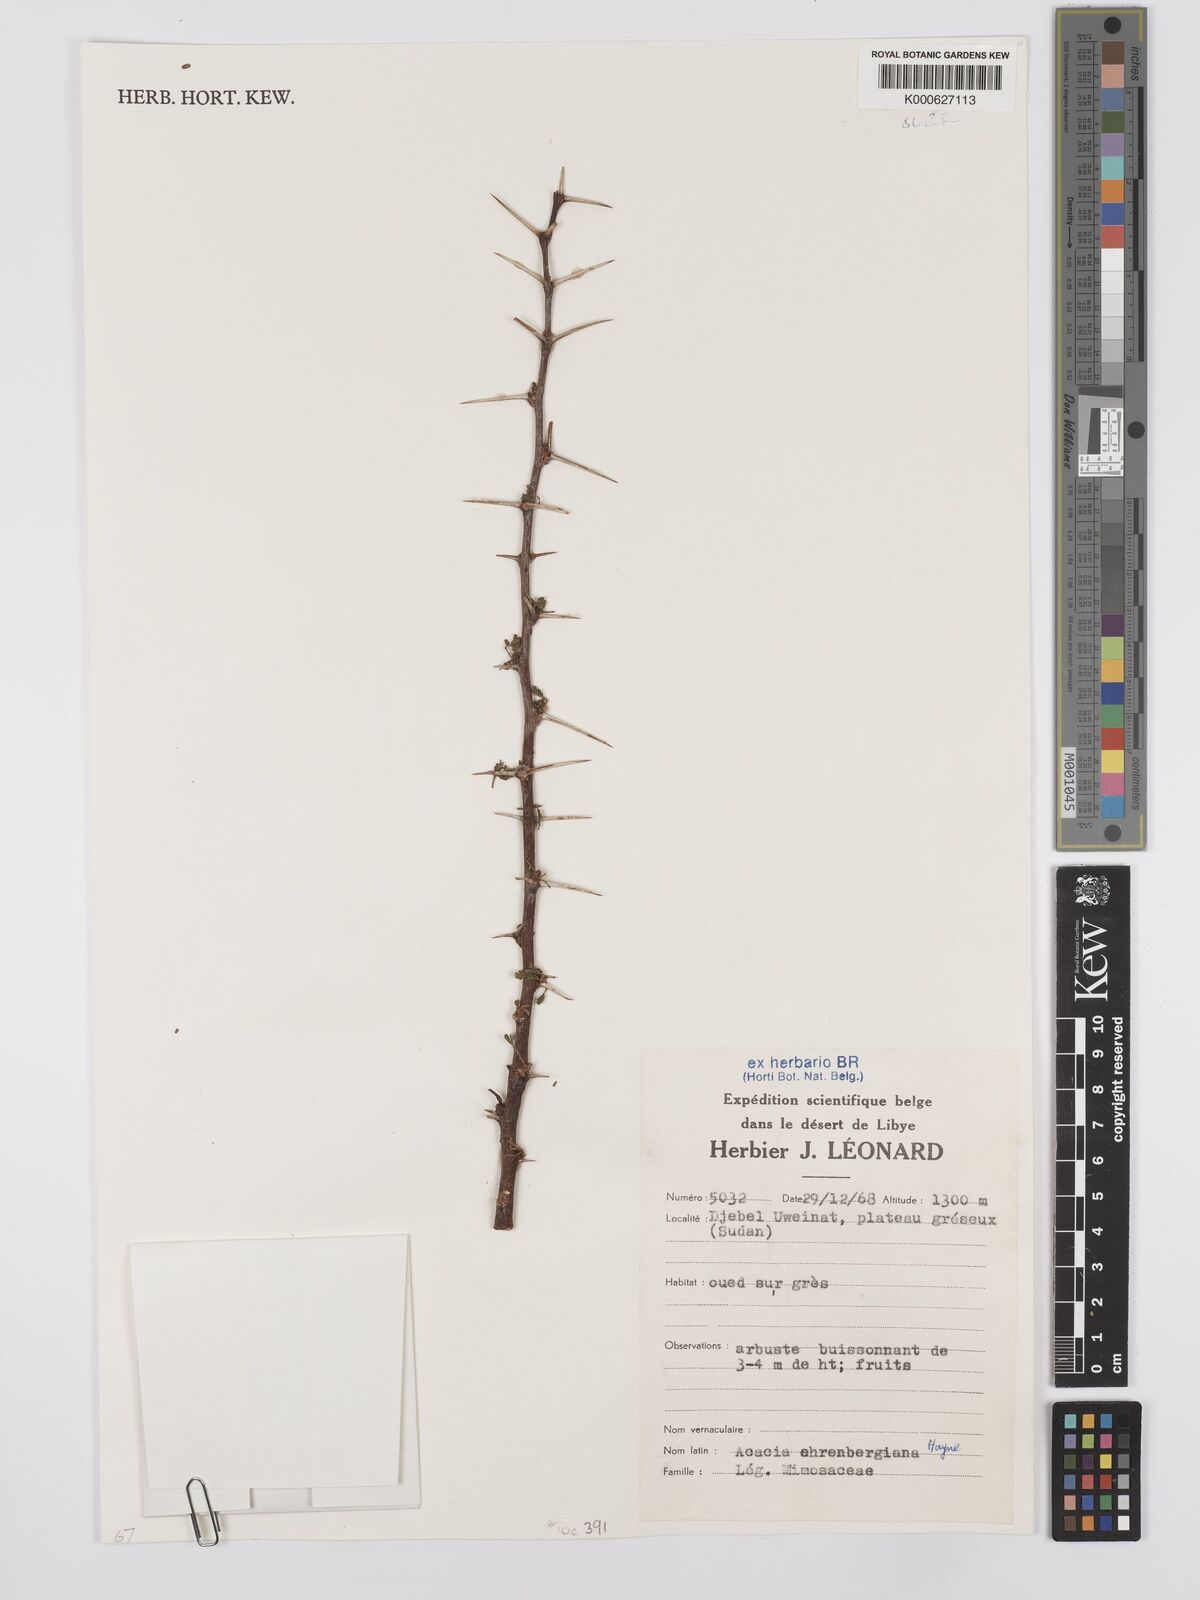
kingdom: Plantae
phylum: Tracheophyta
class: Magnoliopsida
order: Fabales
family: Fabaceae
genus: Vachellia
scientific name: Vachellia flava
